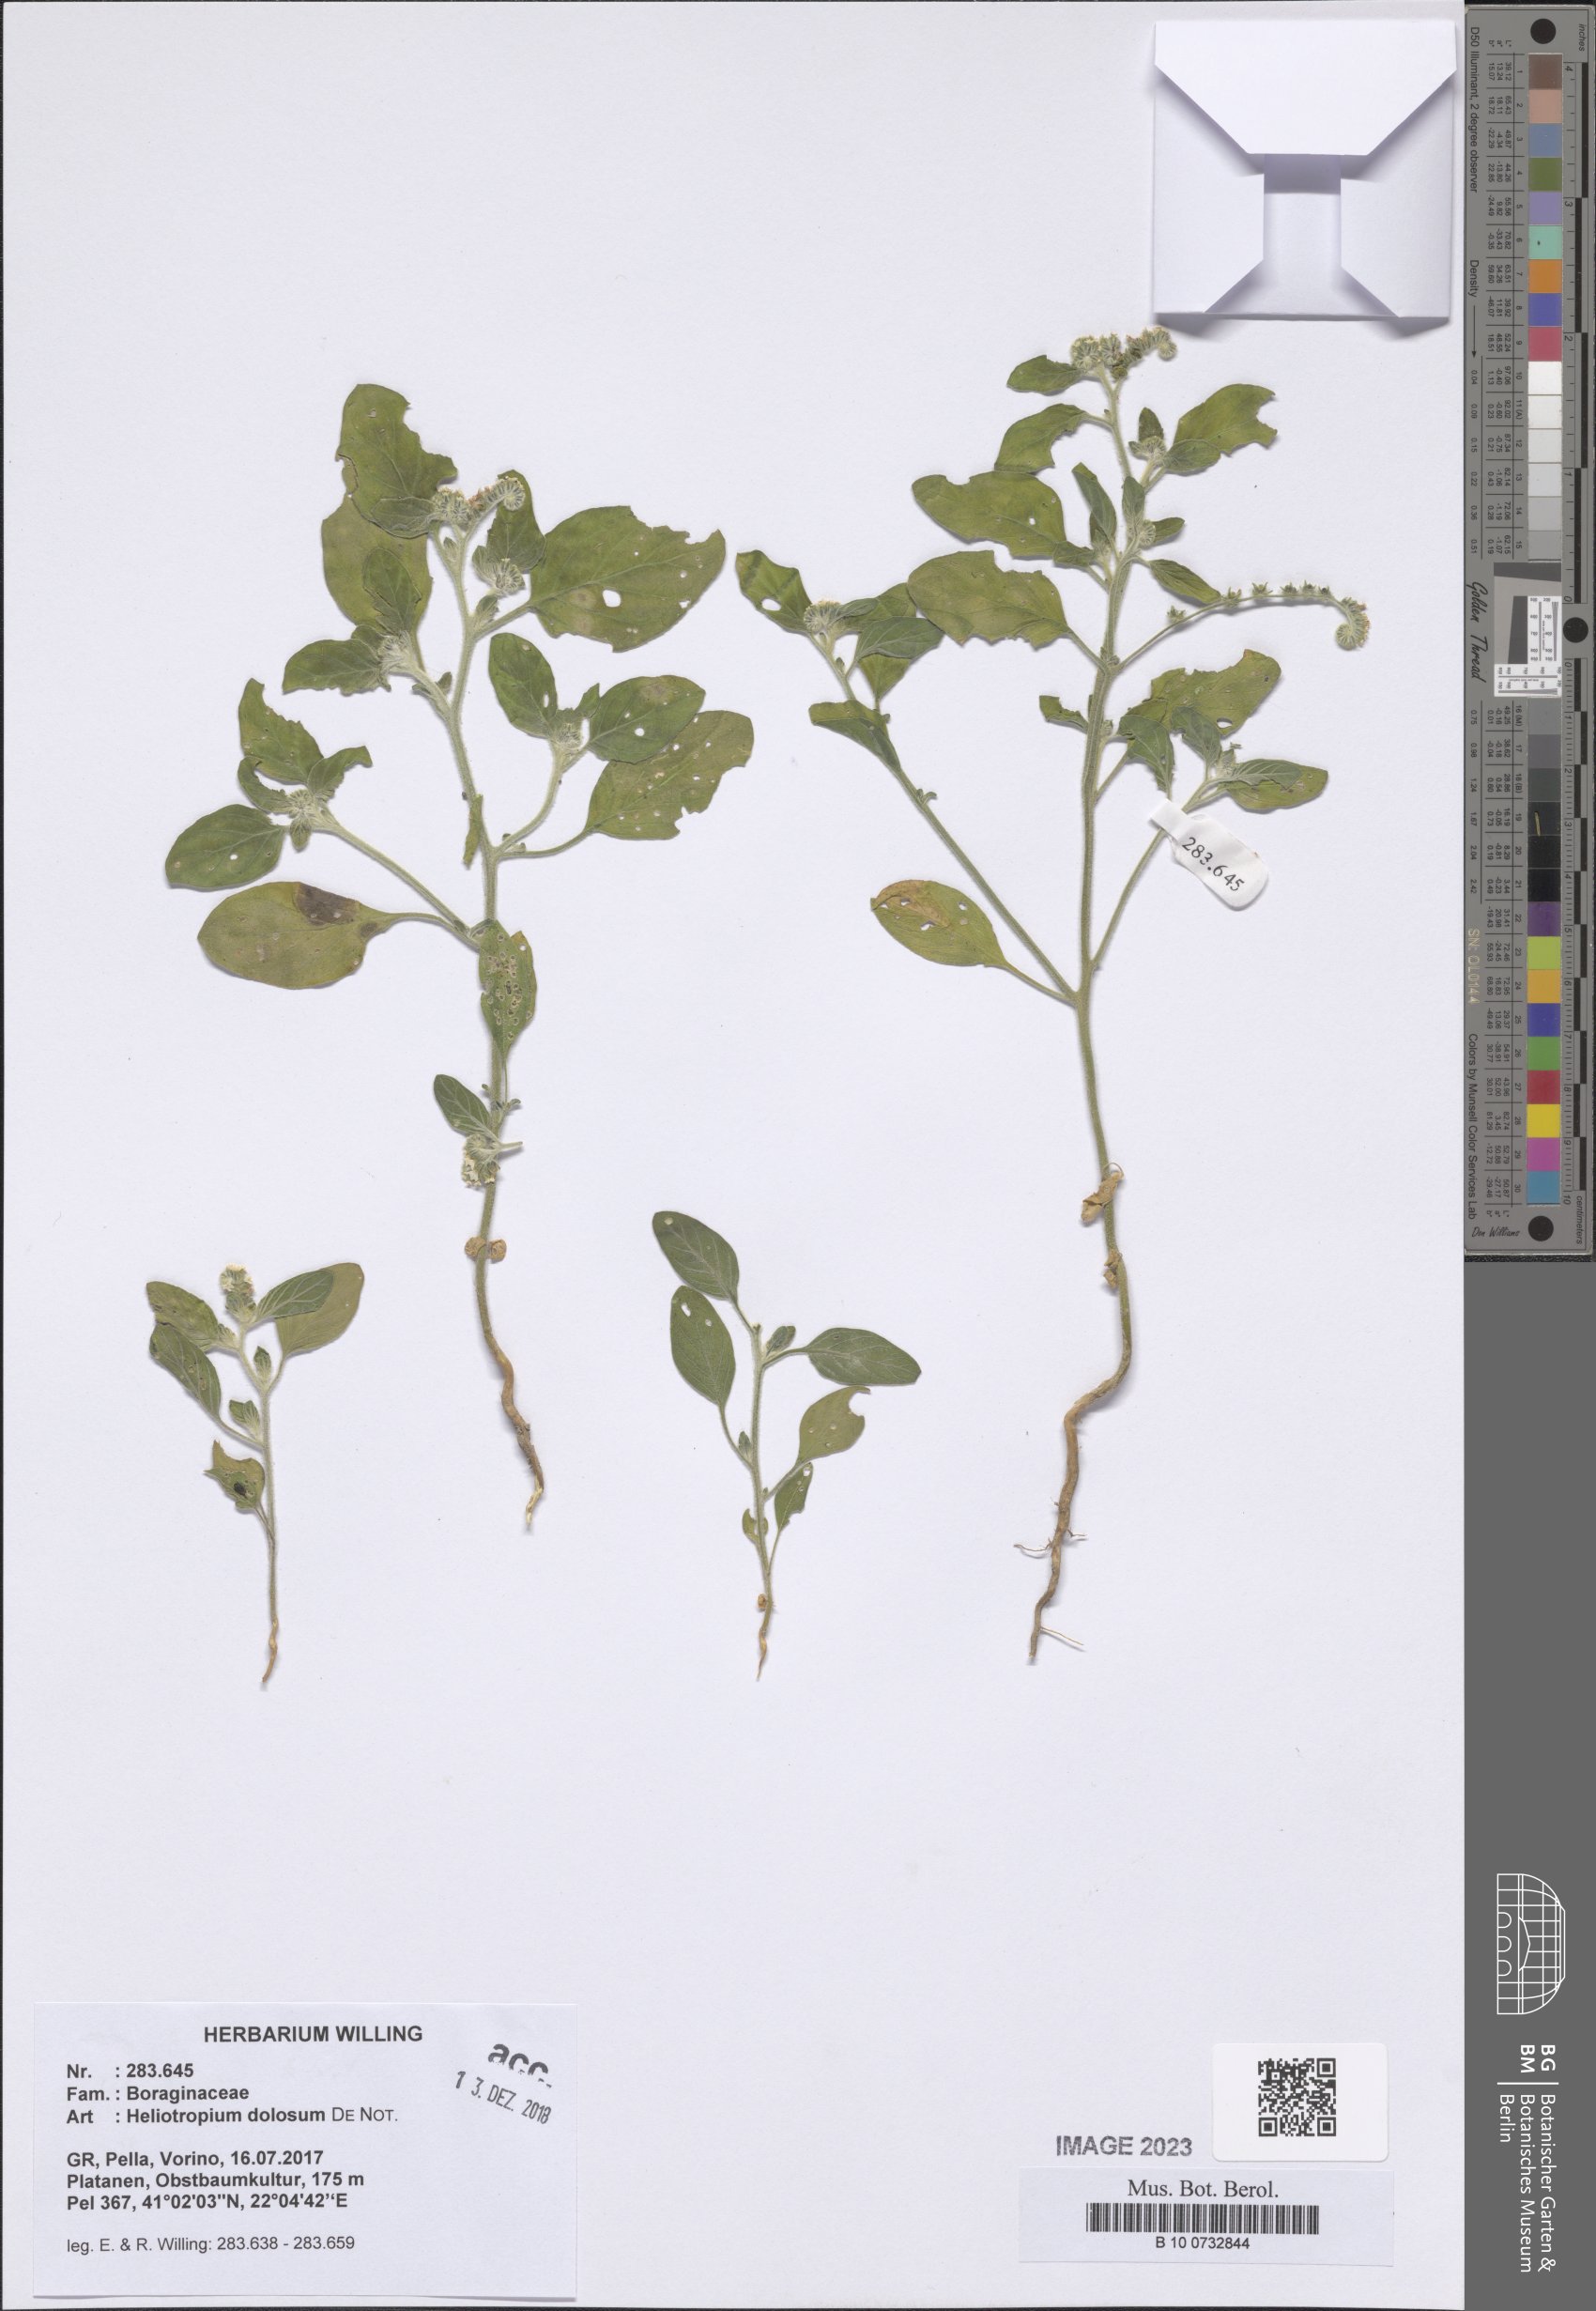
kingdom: Plantae
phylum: Tracheophyta
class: Magnoliopsida
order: Boraginales
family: Heliotropiaceae
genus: Heliotropium
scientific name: Heliotropium dolosum
